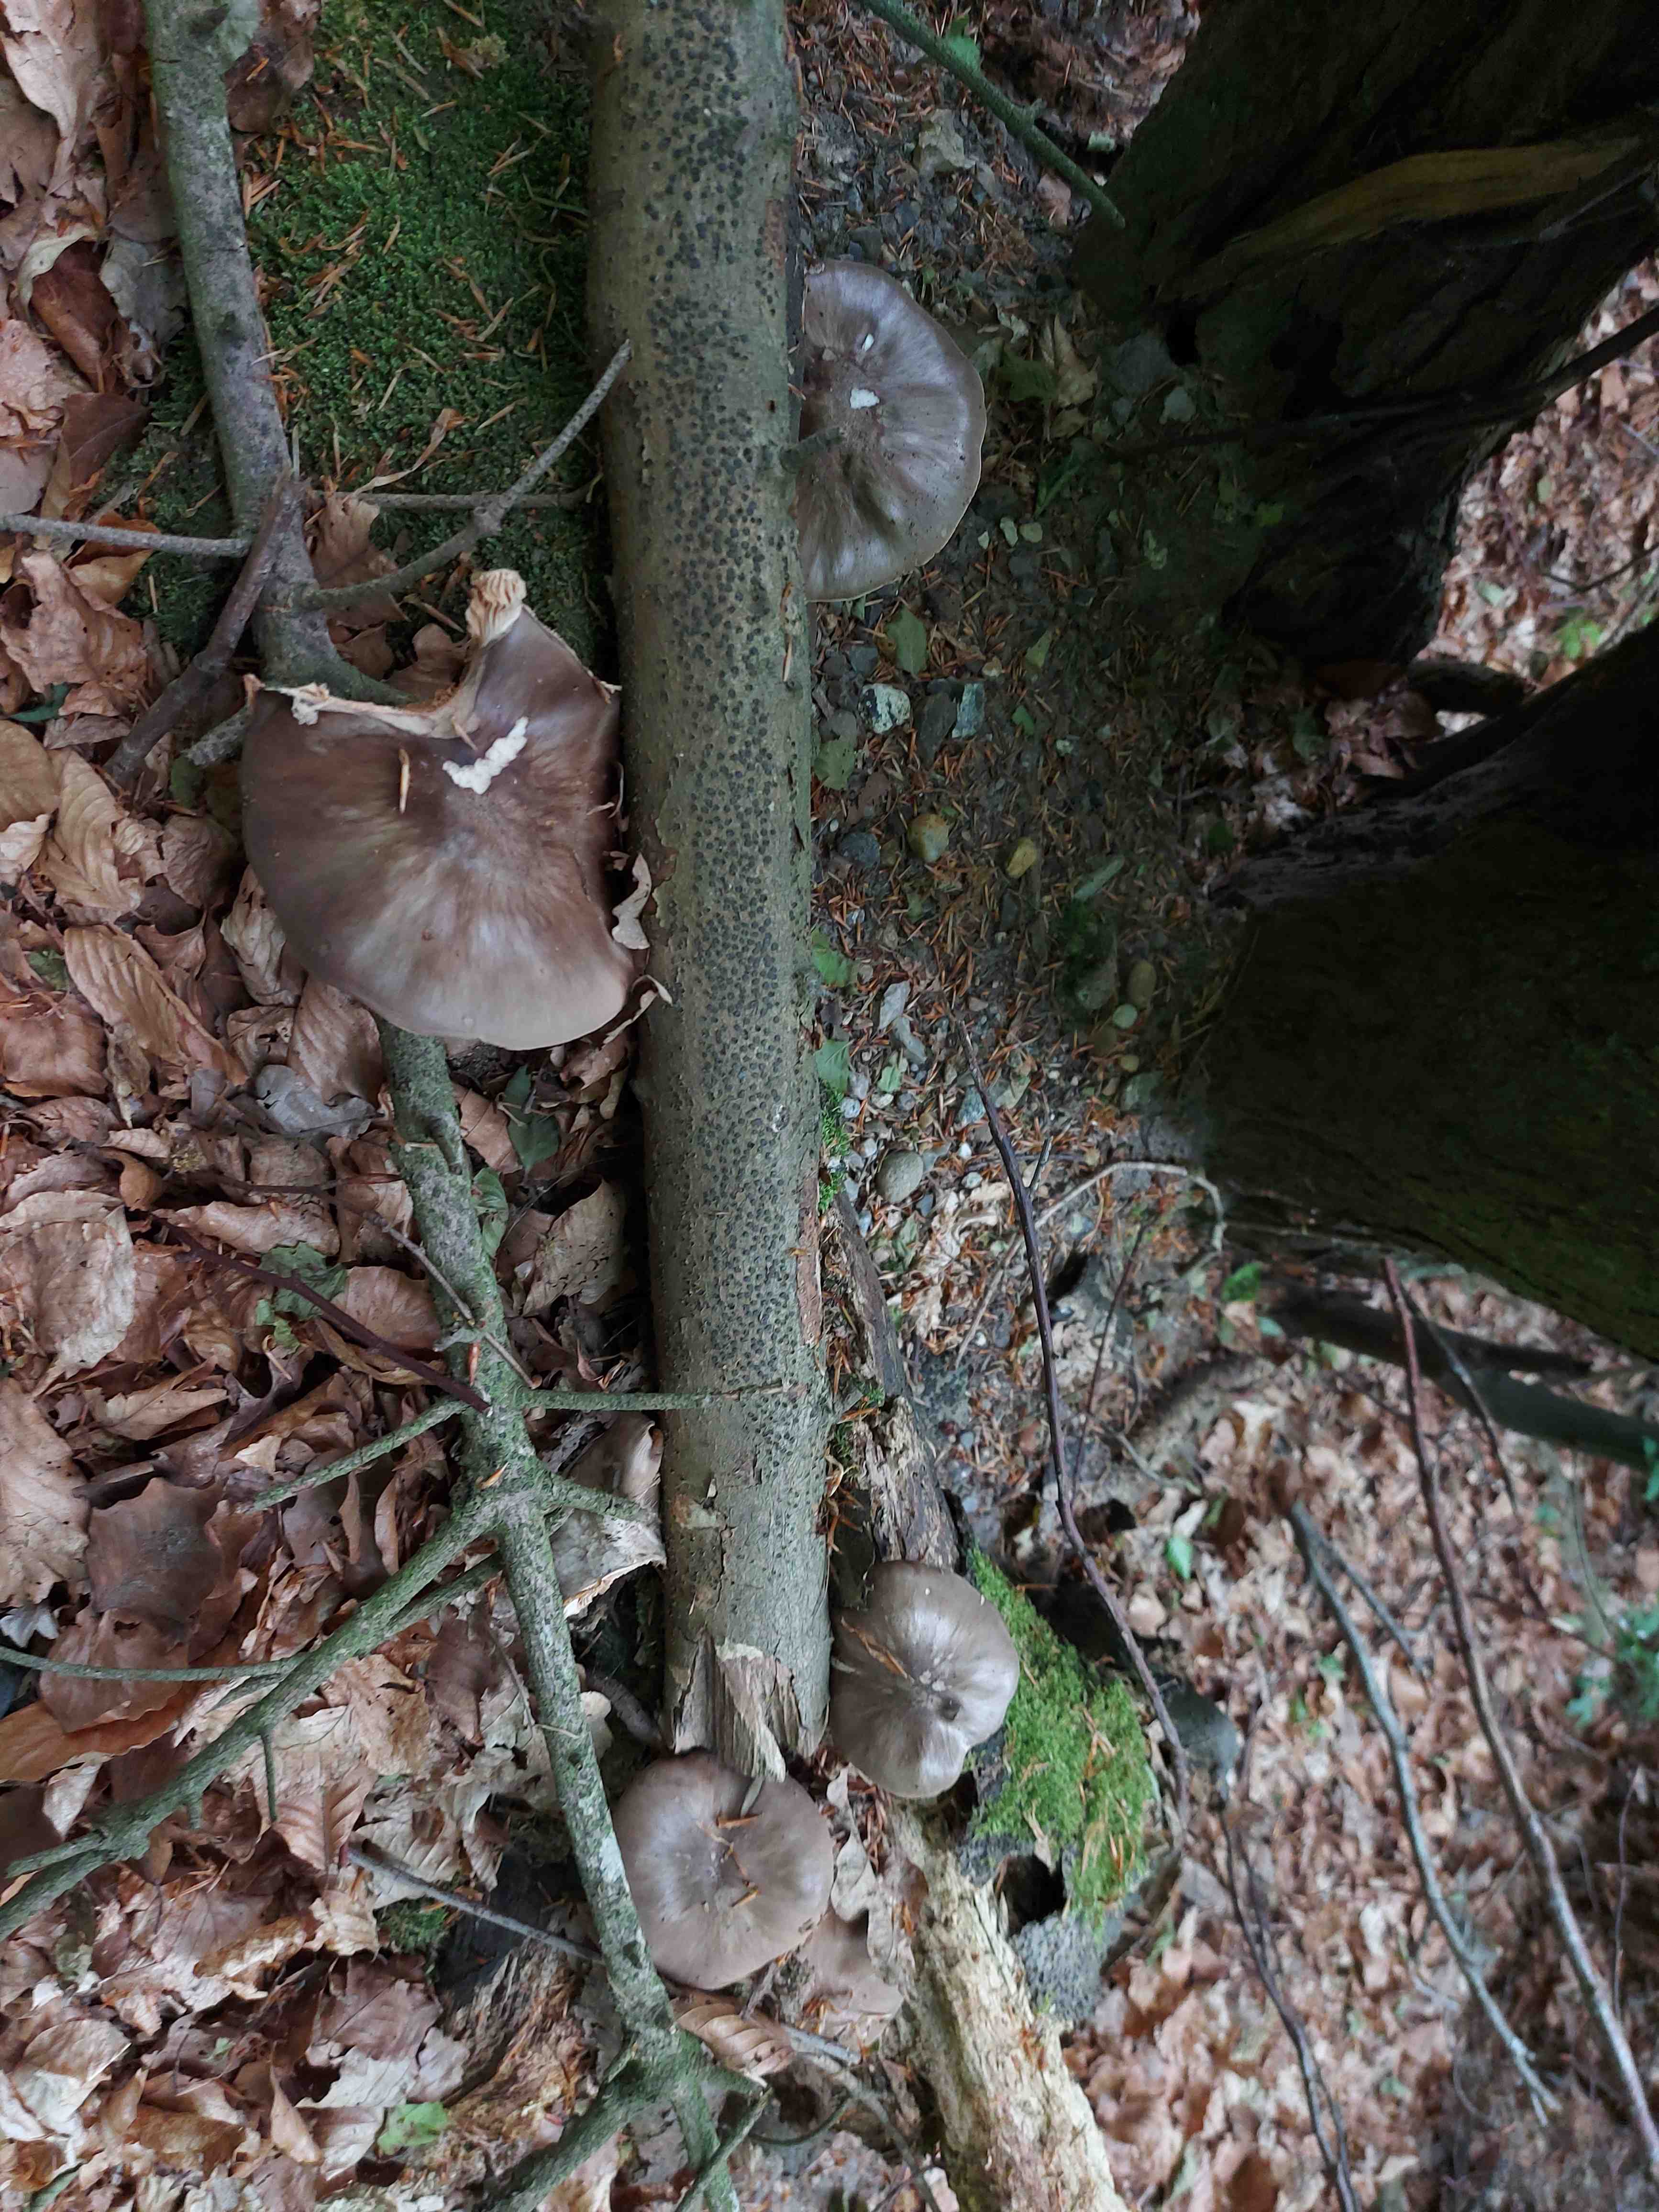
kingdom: Fungi
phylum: Basidiomycota
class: Agaricomycetes
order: Agaricales
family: Pluteaceae
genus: Pluteus
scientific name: Pluteus cervinus
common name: sodfarvet skærmhat
